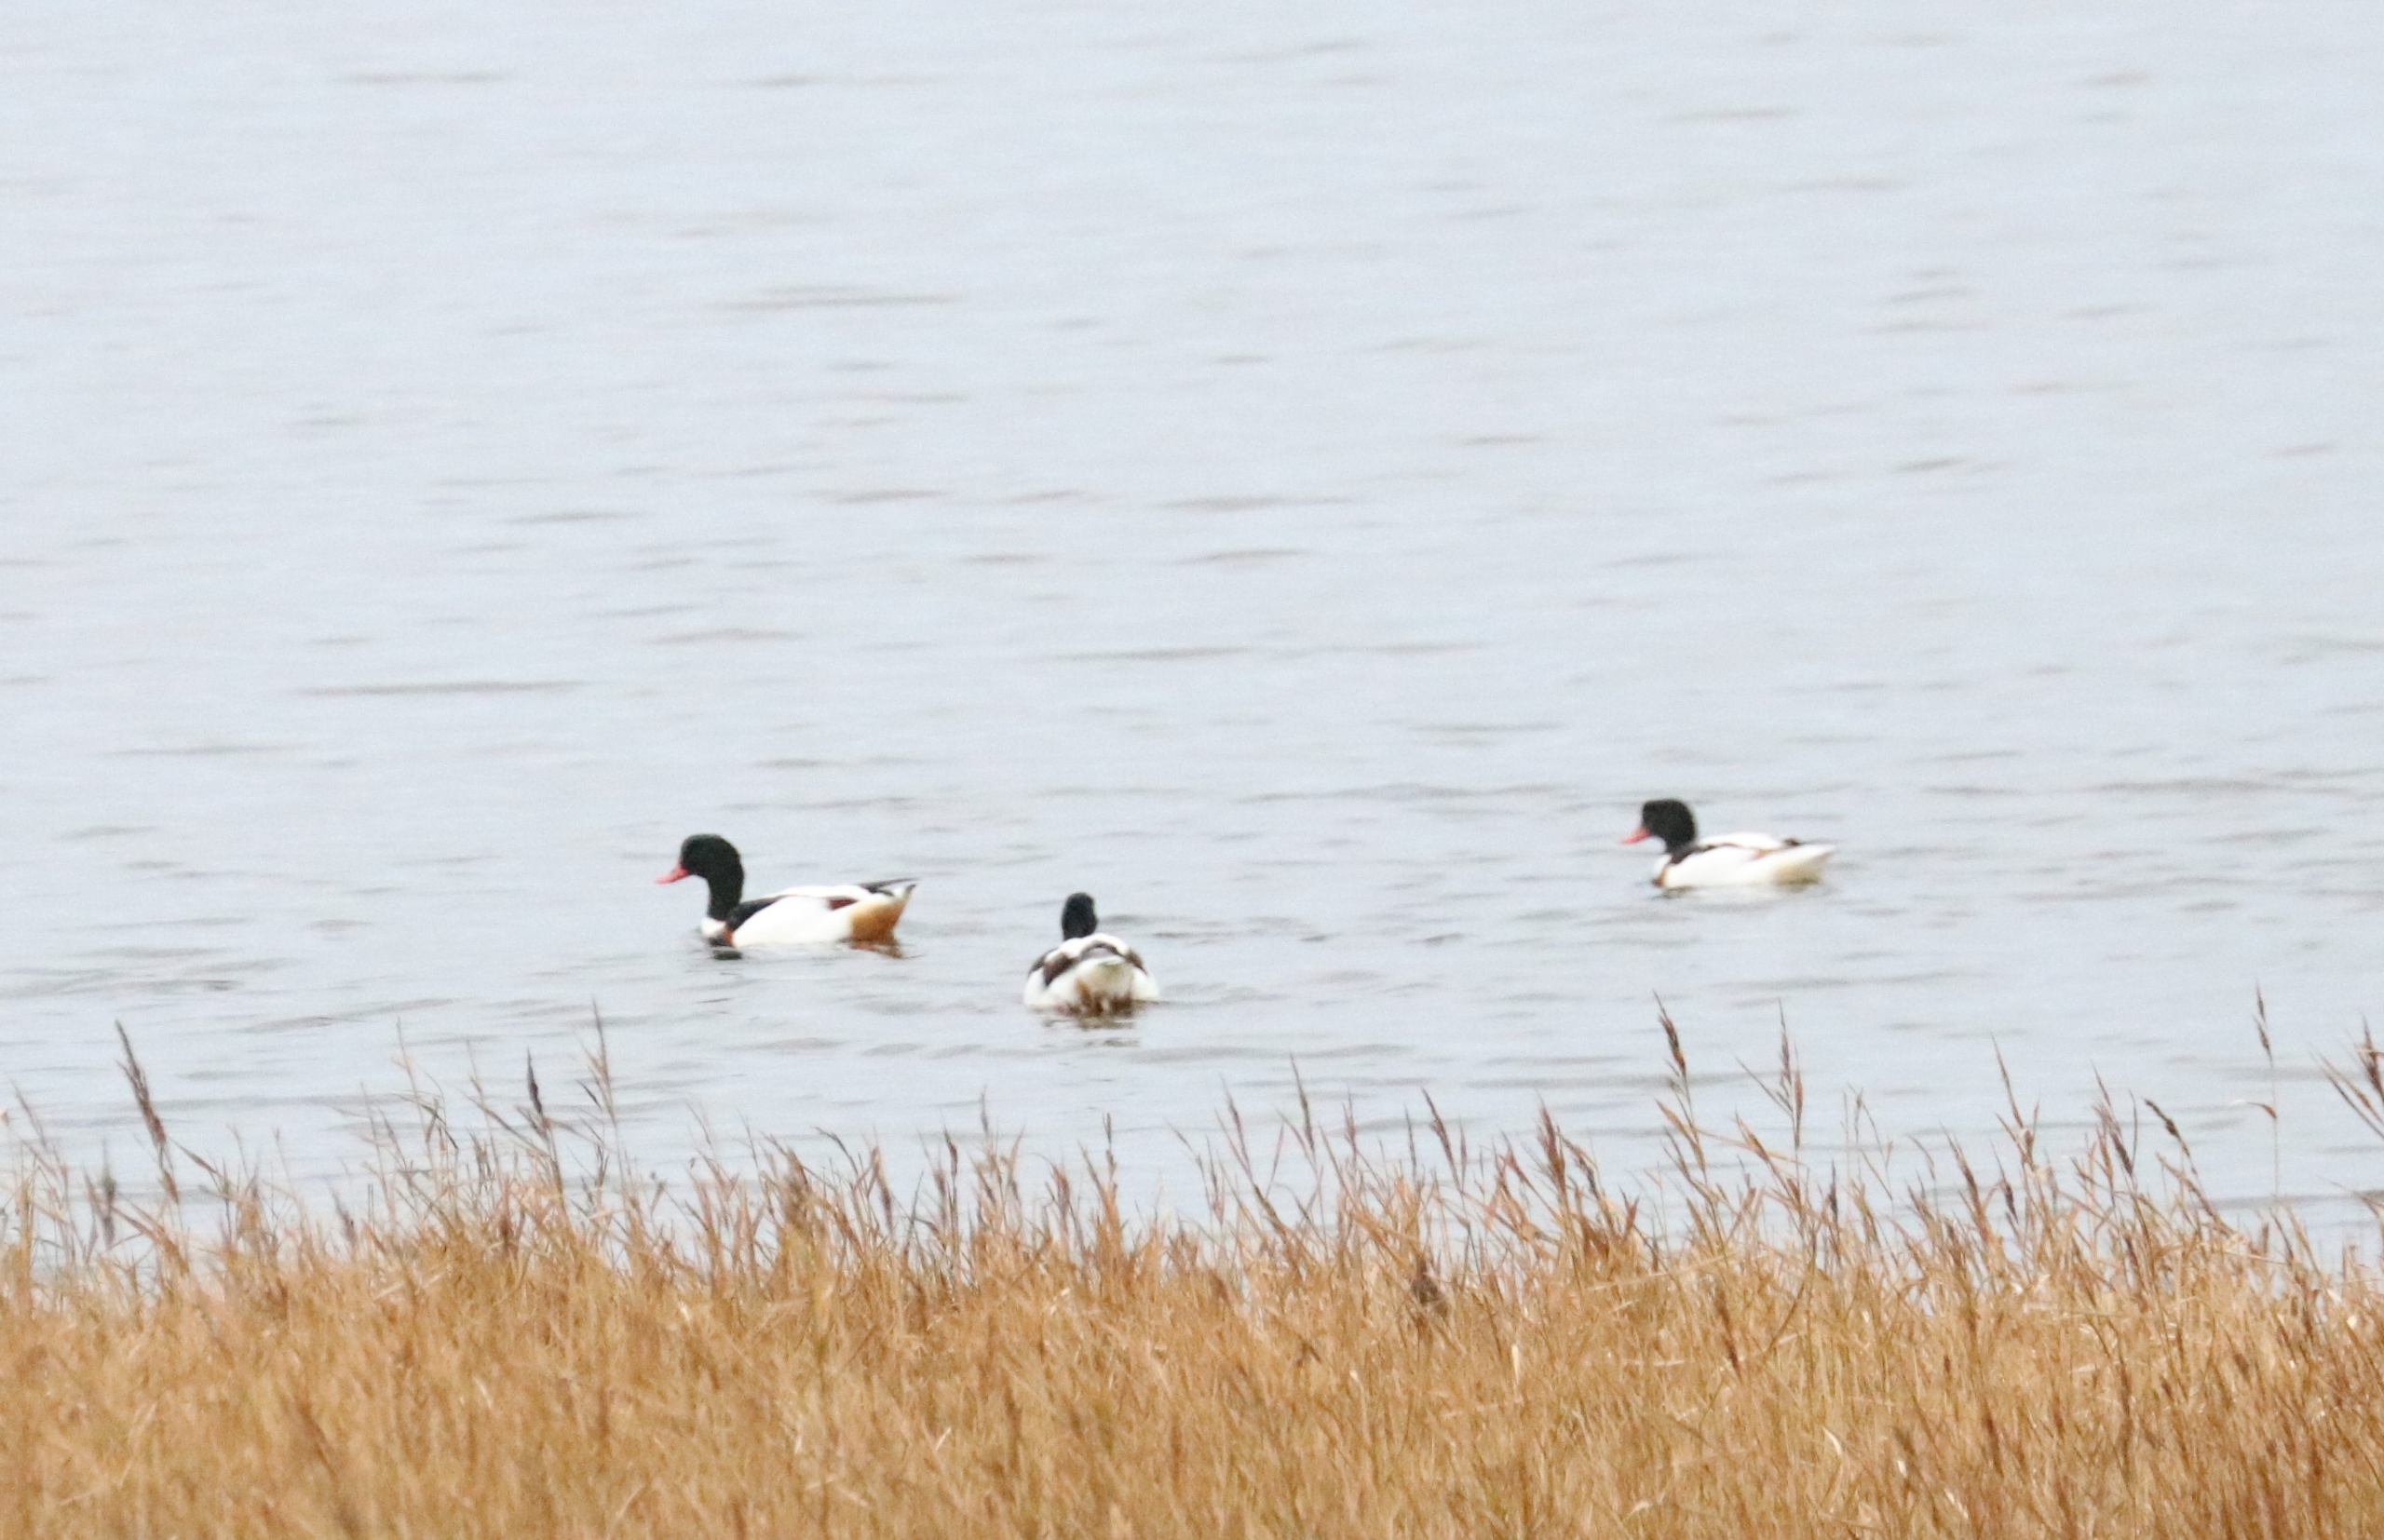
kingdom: Animalia
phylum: Chordata
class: Aves
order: Anseriformes
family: Anatidae
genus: Tadorna
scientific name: Tadorna tadorna
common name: Gravand
